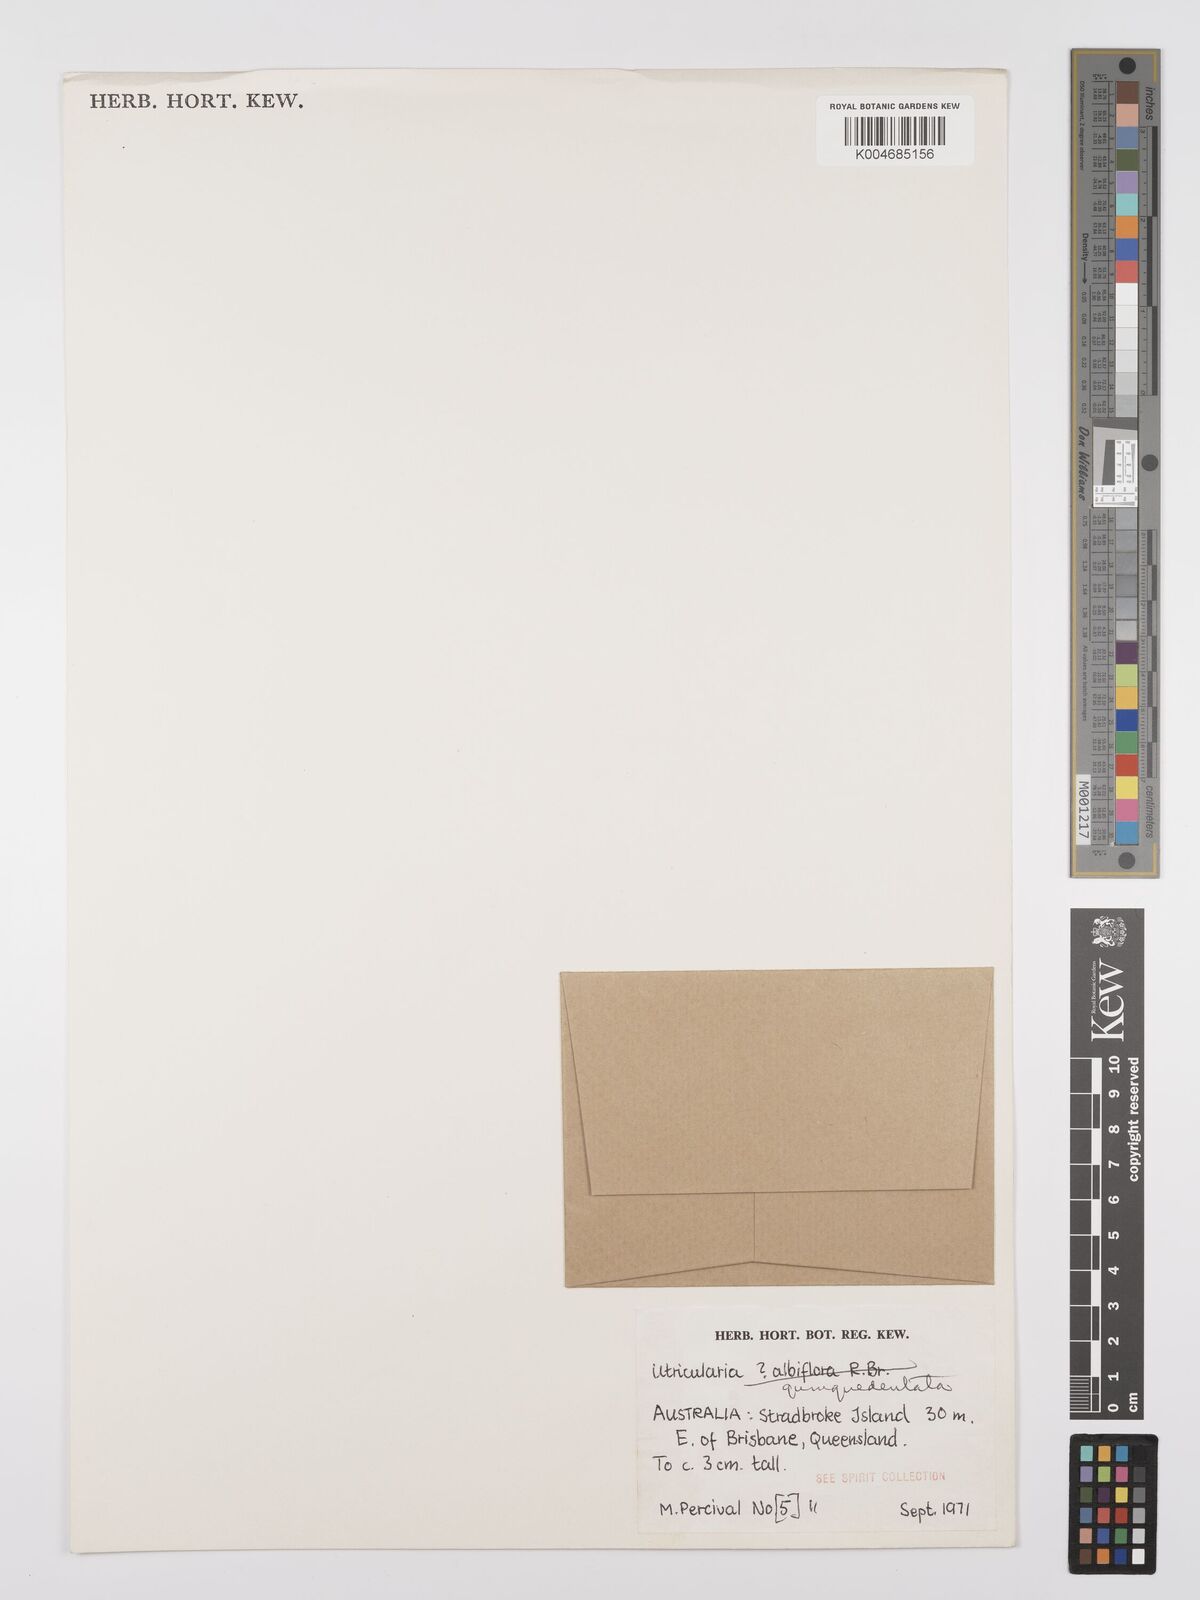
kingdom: Plantae
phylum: Tracheophyta
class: Magnoliopsida
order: Lamiales
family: Lentibulariaceae
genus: Utricularia
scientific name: Utricularia quinquedentata
